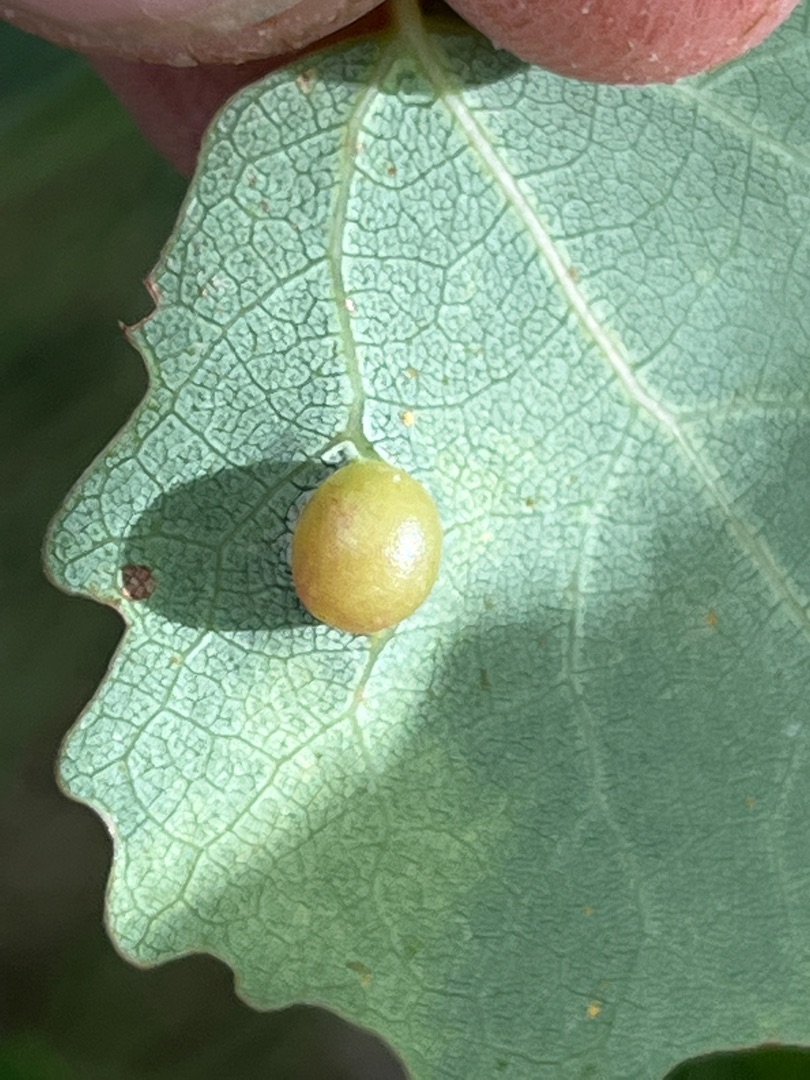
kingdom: Animalia
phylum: Arthropoda
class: Insecta
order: Diptera
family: Cecidomyiidae
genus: Harmandiola
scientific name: Harmandiola cavernosa
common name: Aspepunggalmyg
